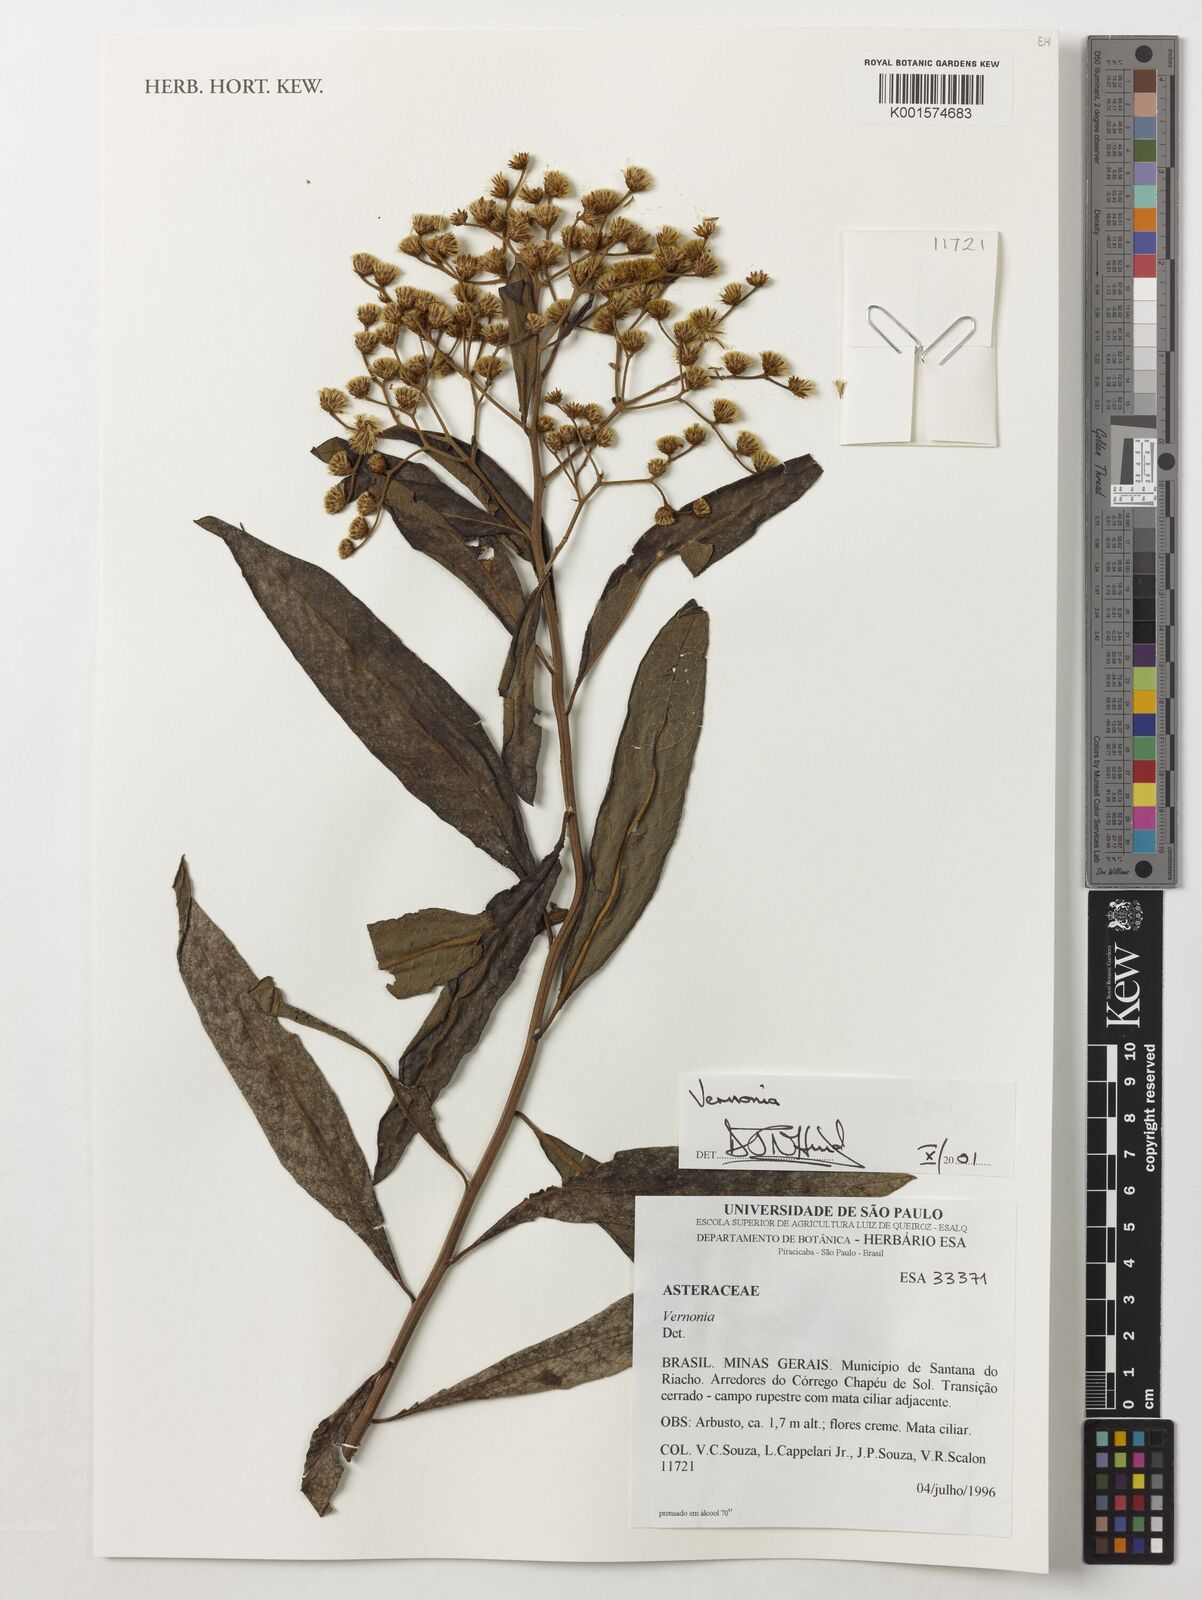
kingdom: Plantae
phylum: Tracheophyta
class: Magnoliopsida
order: Asterales
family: Asteraceae
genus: Vernonia
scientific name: Vernonia
